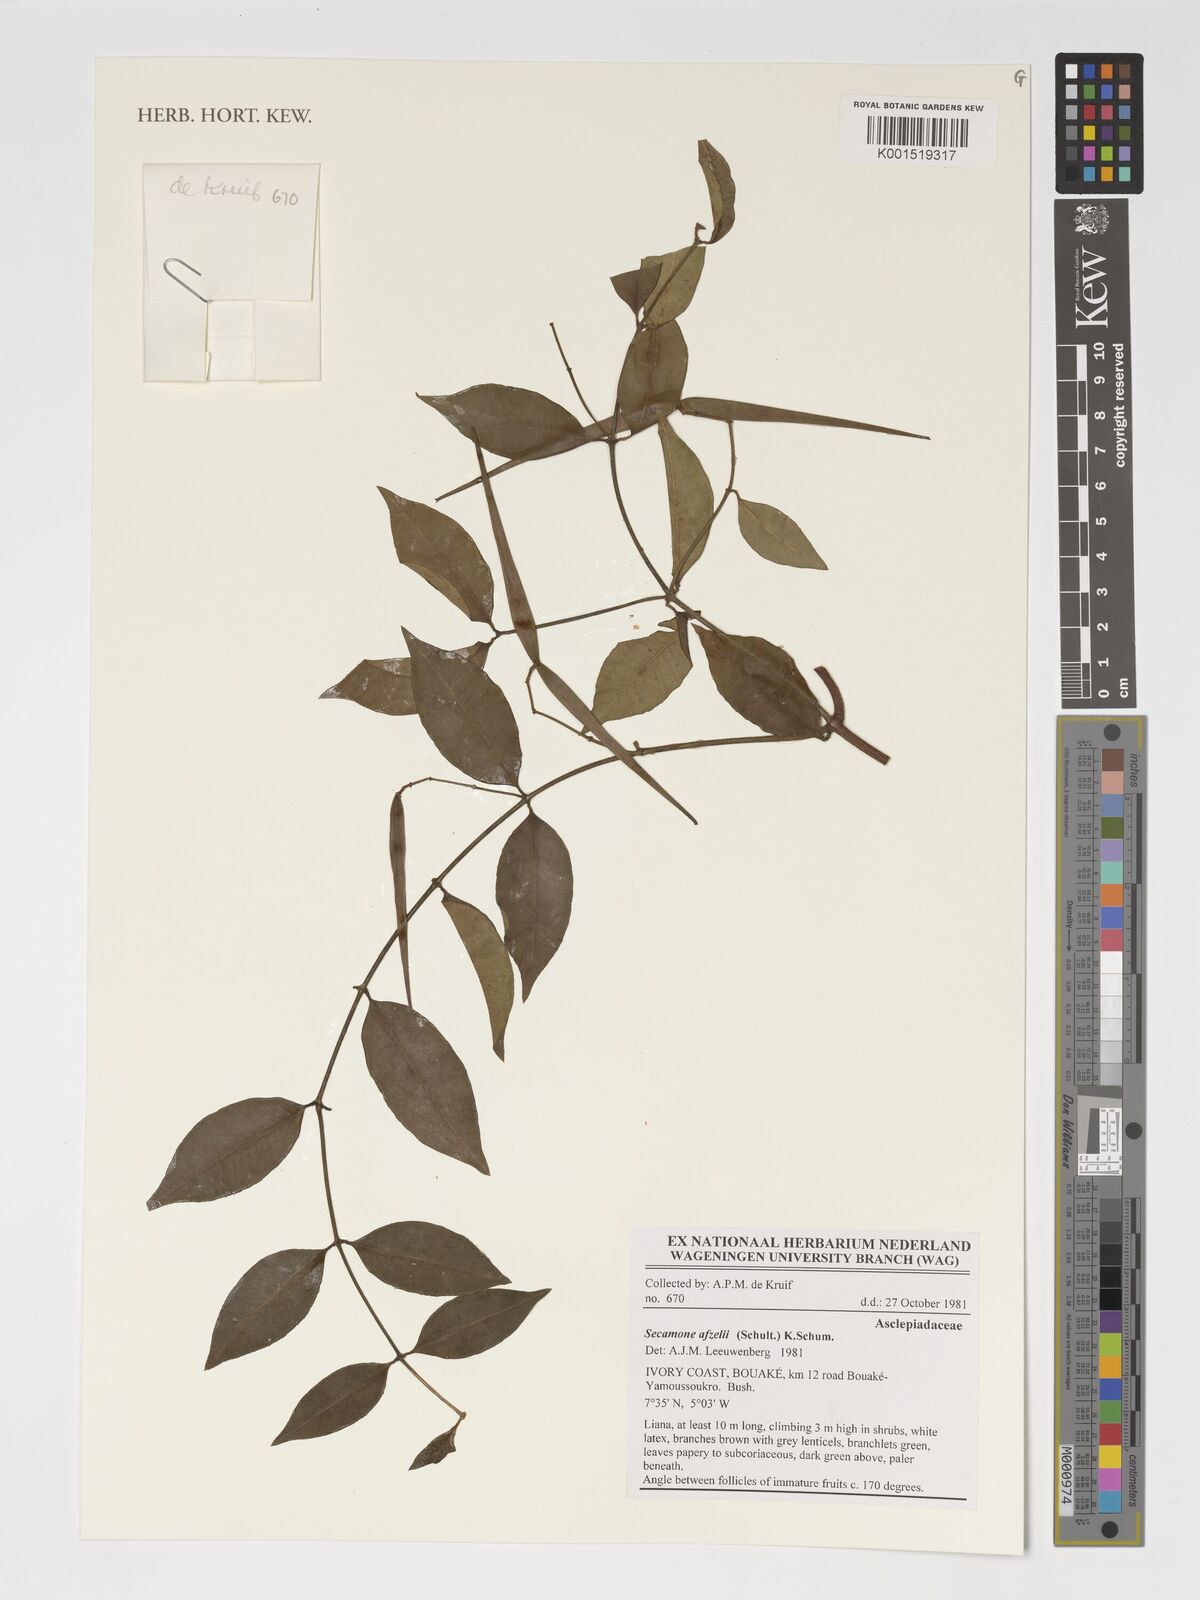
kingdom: Plantae
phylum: Tracheophyta
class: Magnoliopsida
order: Gentianales
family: Apocynaceae
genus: Secamone
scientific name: Secamone afzelii
